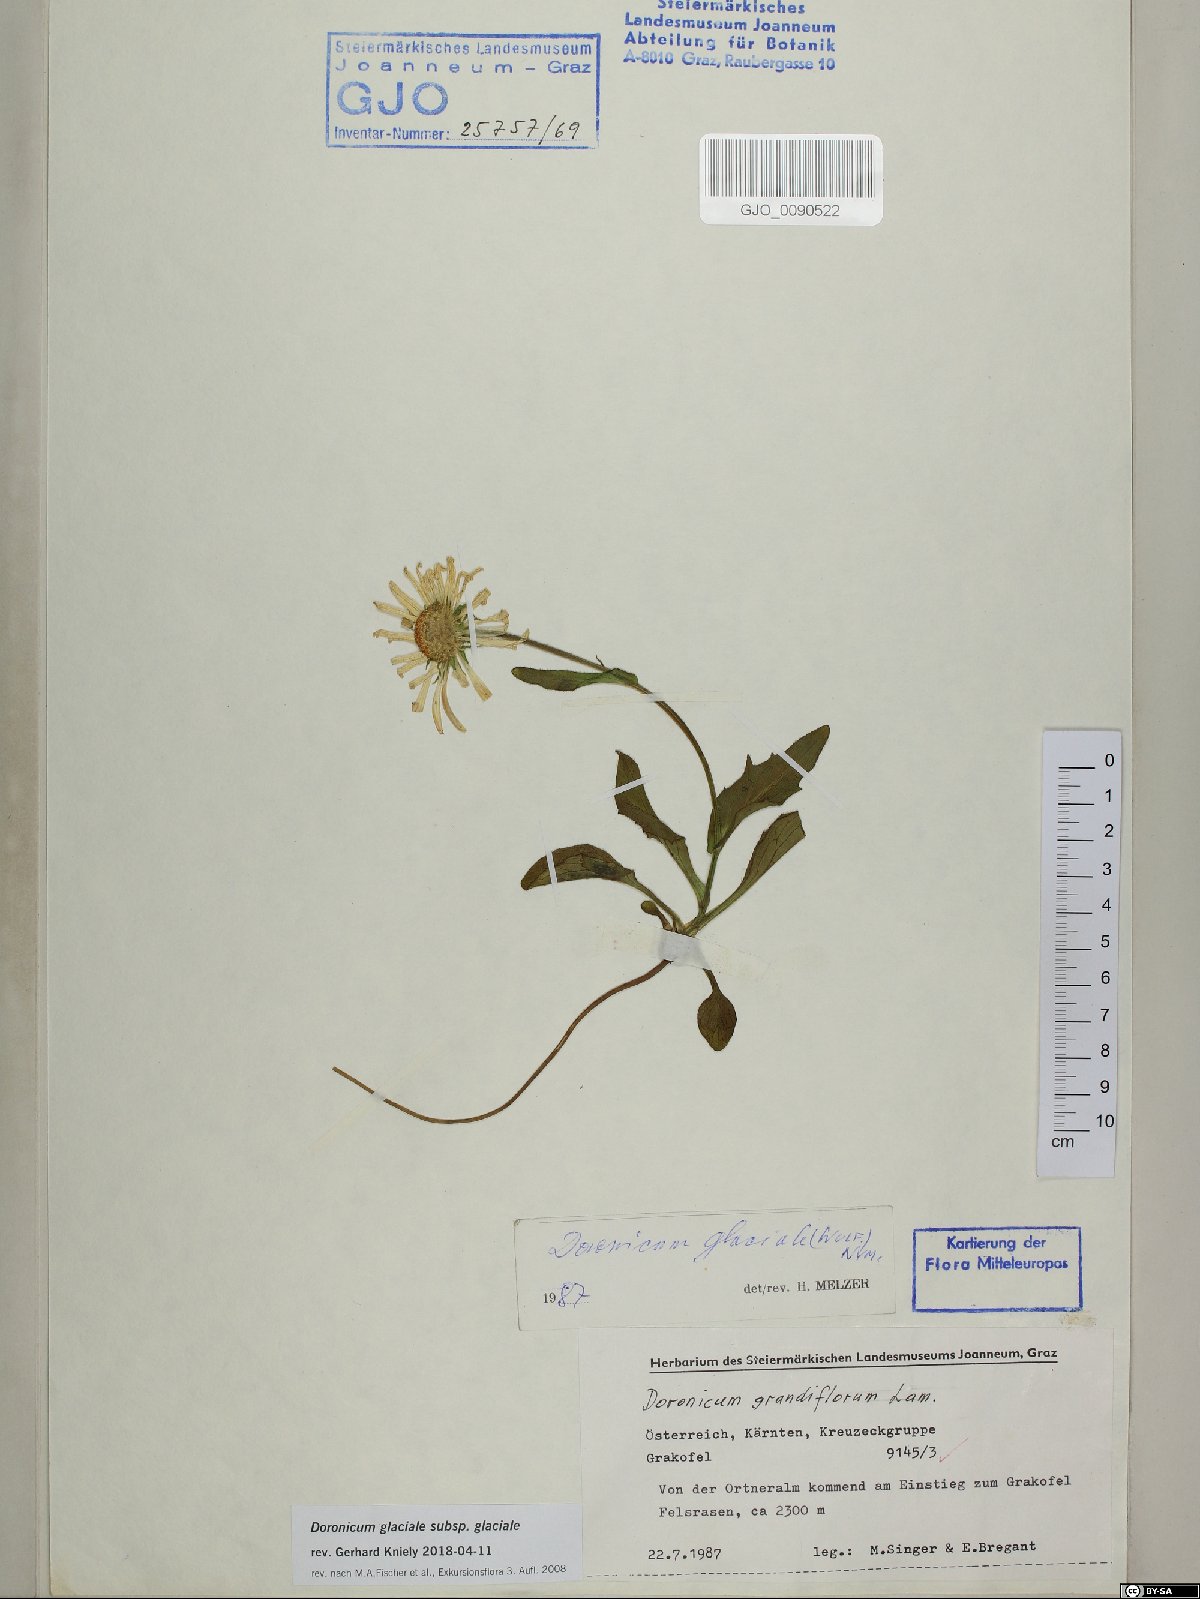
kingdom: Plantae
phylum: Tracheophyta
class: Magnoliopsida
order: Asterales
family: Asteraceae
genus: Doronicum
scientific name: Doronicum glaciale
